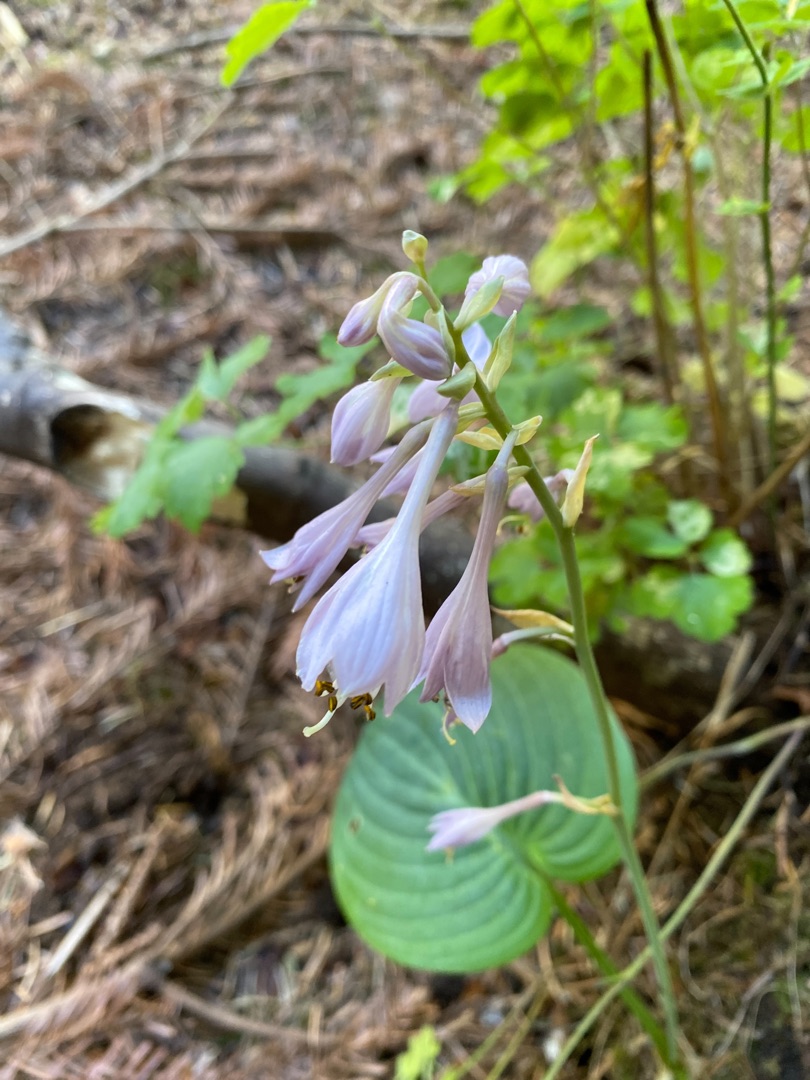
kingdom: Plantae
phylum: Tracheophyta
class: Liliopsida
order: Asparagales
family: Asparagaceae
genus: Hosta
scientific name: Hosta sieboldiana
